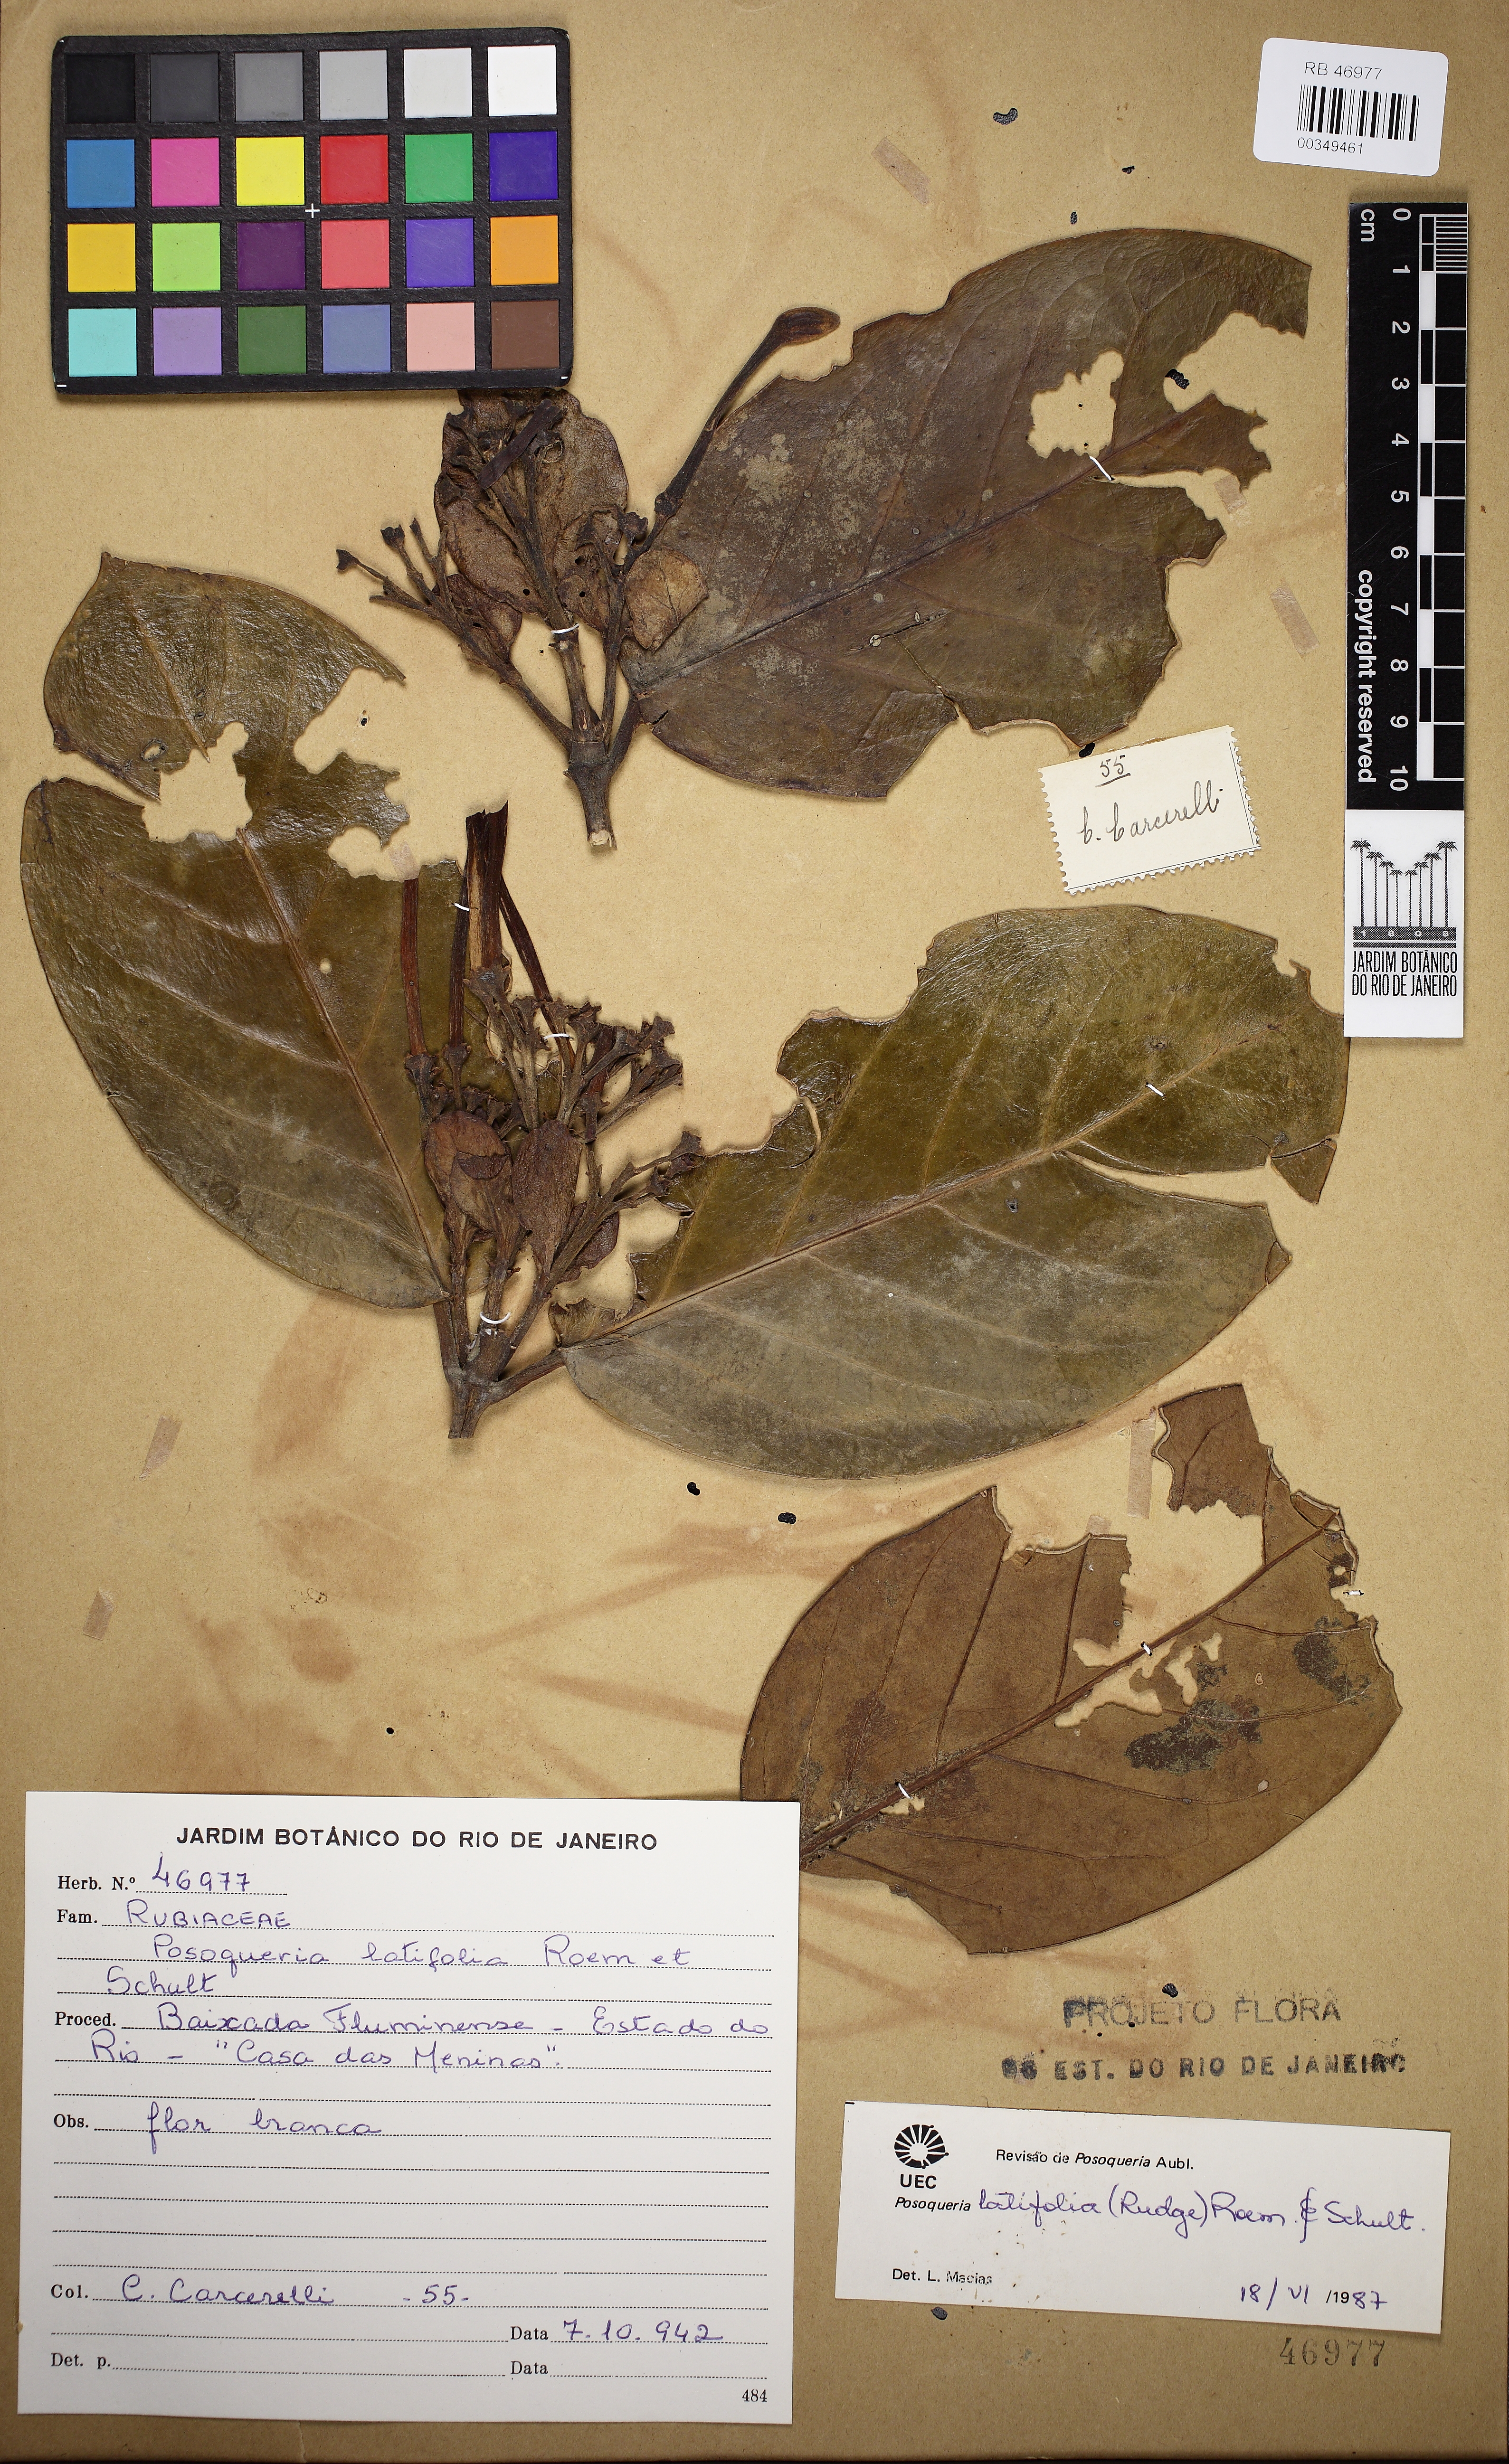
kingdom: Plantae
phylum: Tracheophyta
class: Magnoliopsida
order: Gentianales
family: Rubiaceae
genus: Posoqueria
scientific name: Posoqueria latifolia
